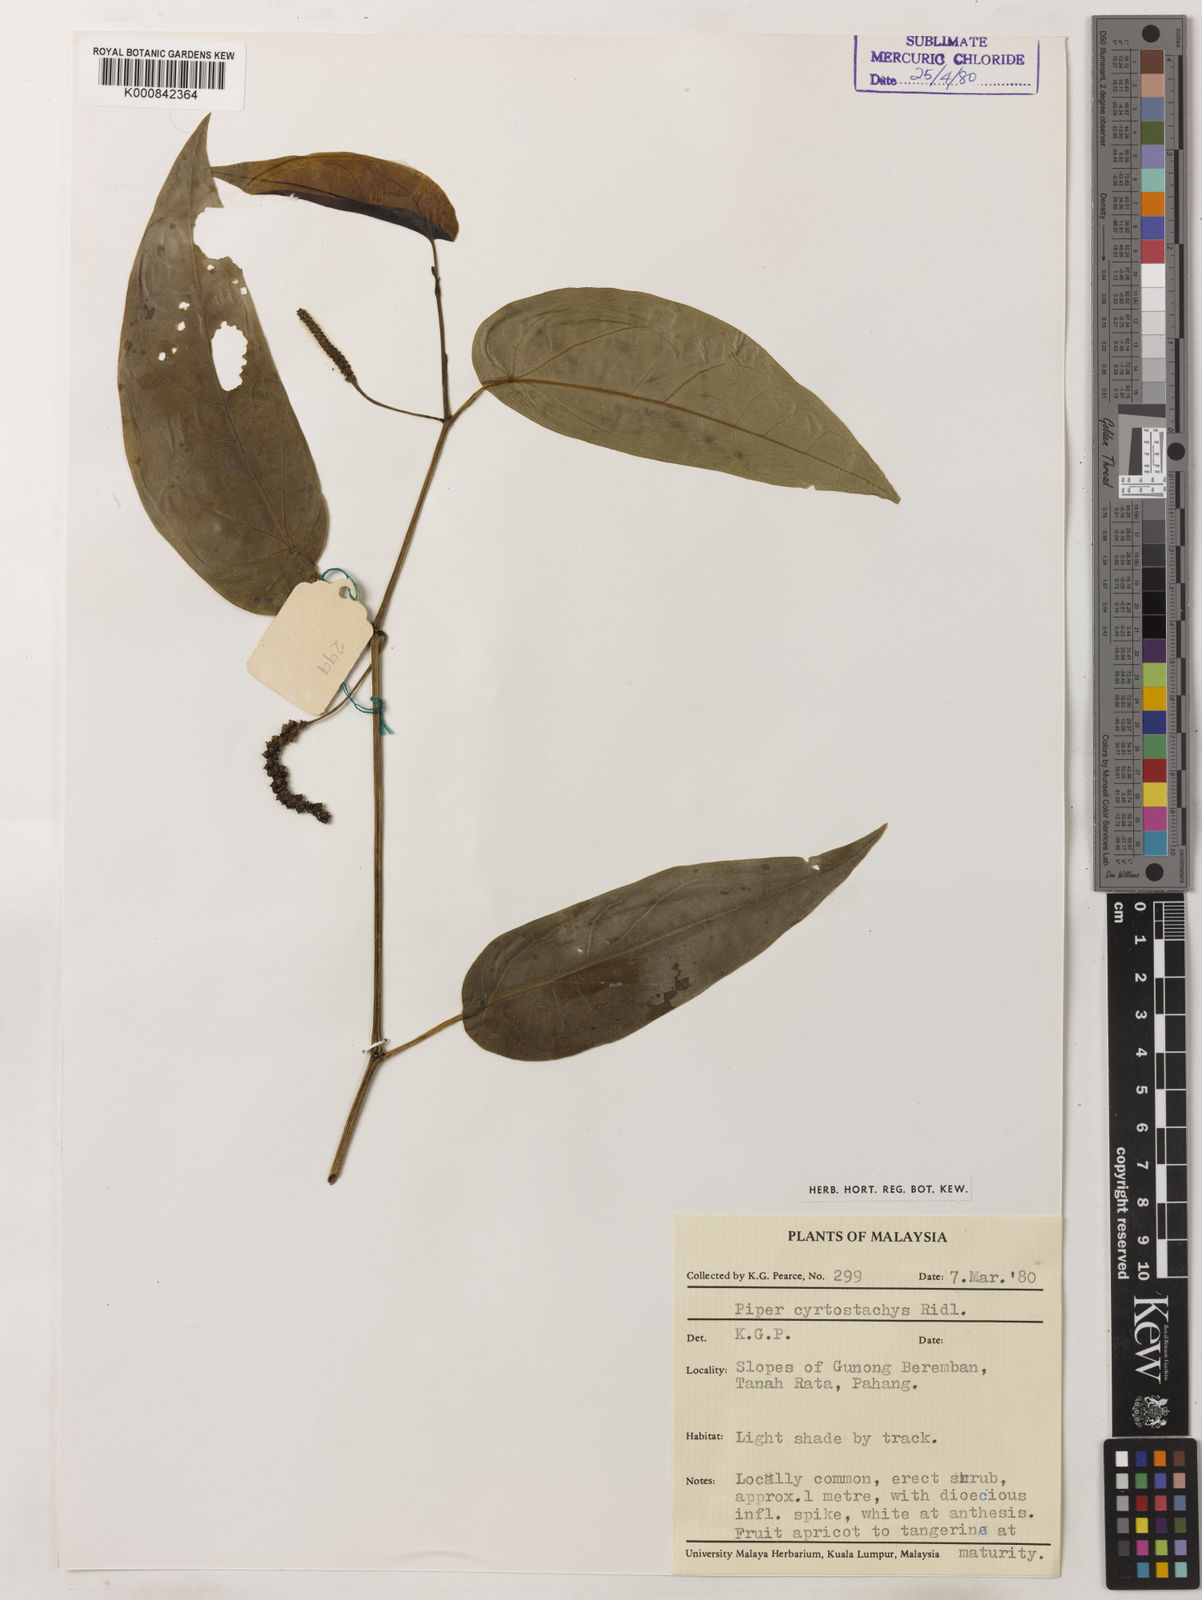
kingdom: Plantae
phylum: Tracheophyta
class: Magnoliopsida
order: Piperales
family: Piperaceae
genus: Piper
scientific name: Piper cyrtostachys
